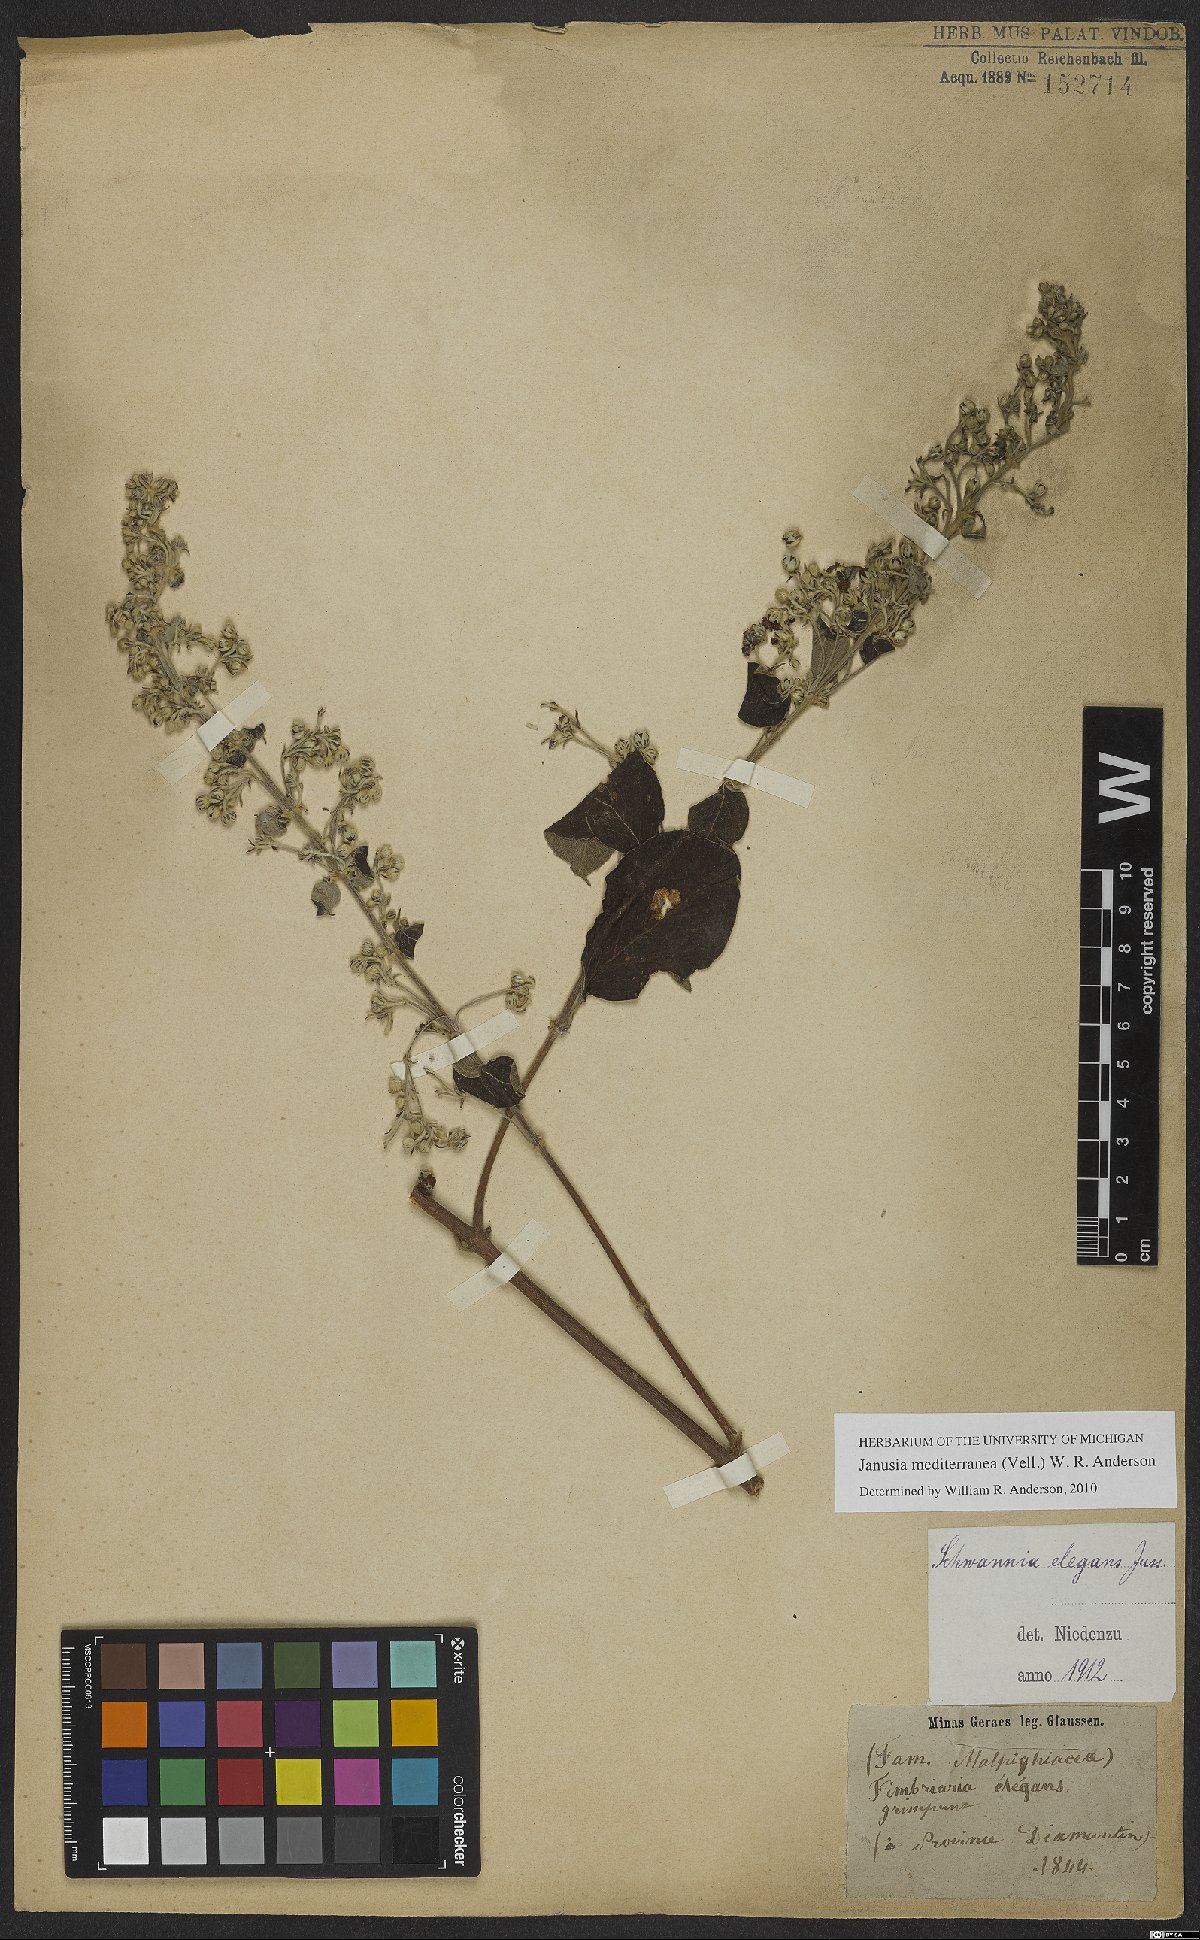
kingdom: Plantae
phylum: Tracheophyta
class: Magnoliopsida
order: Malpighiales
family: Malpighiaceae
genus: Janusia
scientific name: Janusia mediterranea
